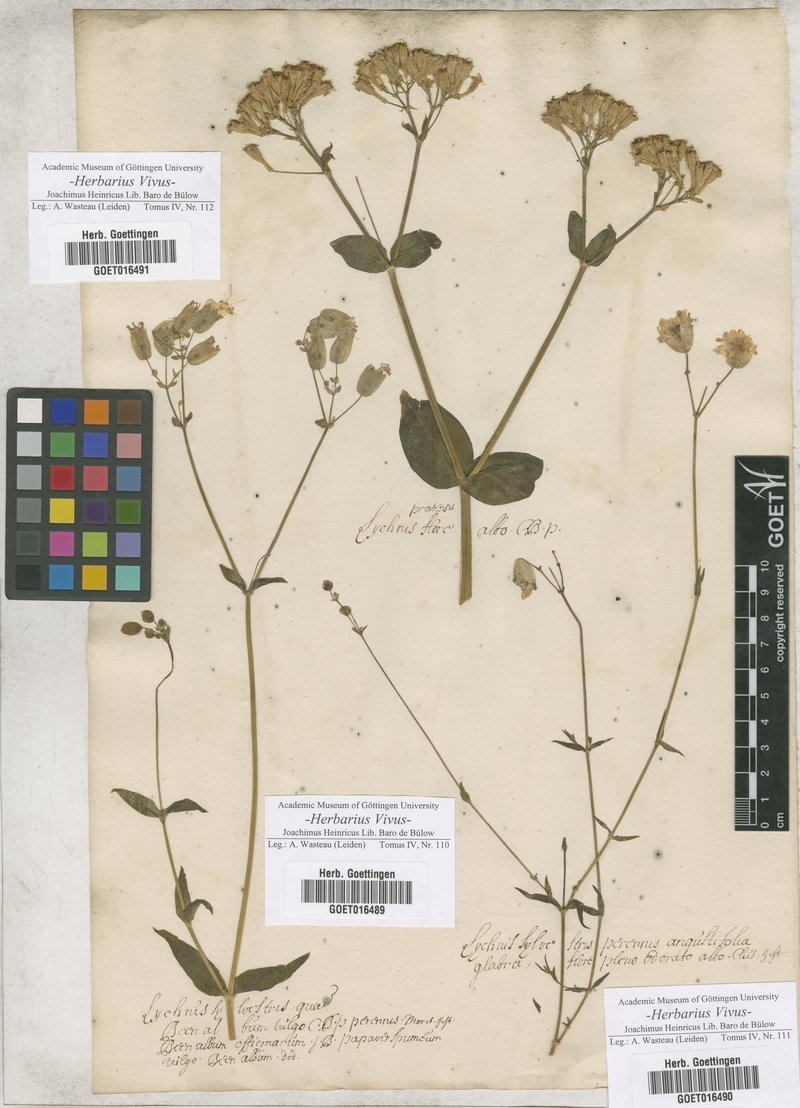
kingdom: Plantae
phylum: Tracheophyta
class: Magnoliopsida
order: Caryophyllales
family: Caryophyllaceae
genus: Silene
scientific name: Silene vulgaris
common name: Bladder campion
